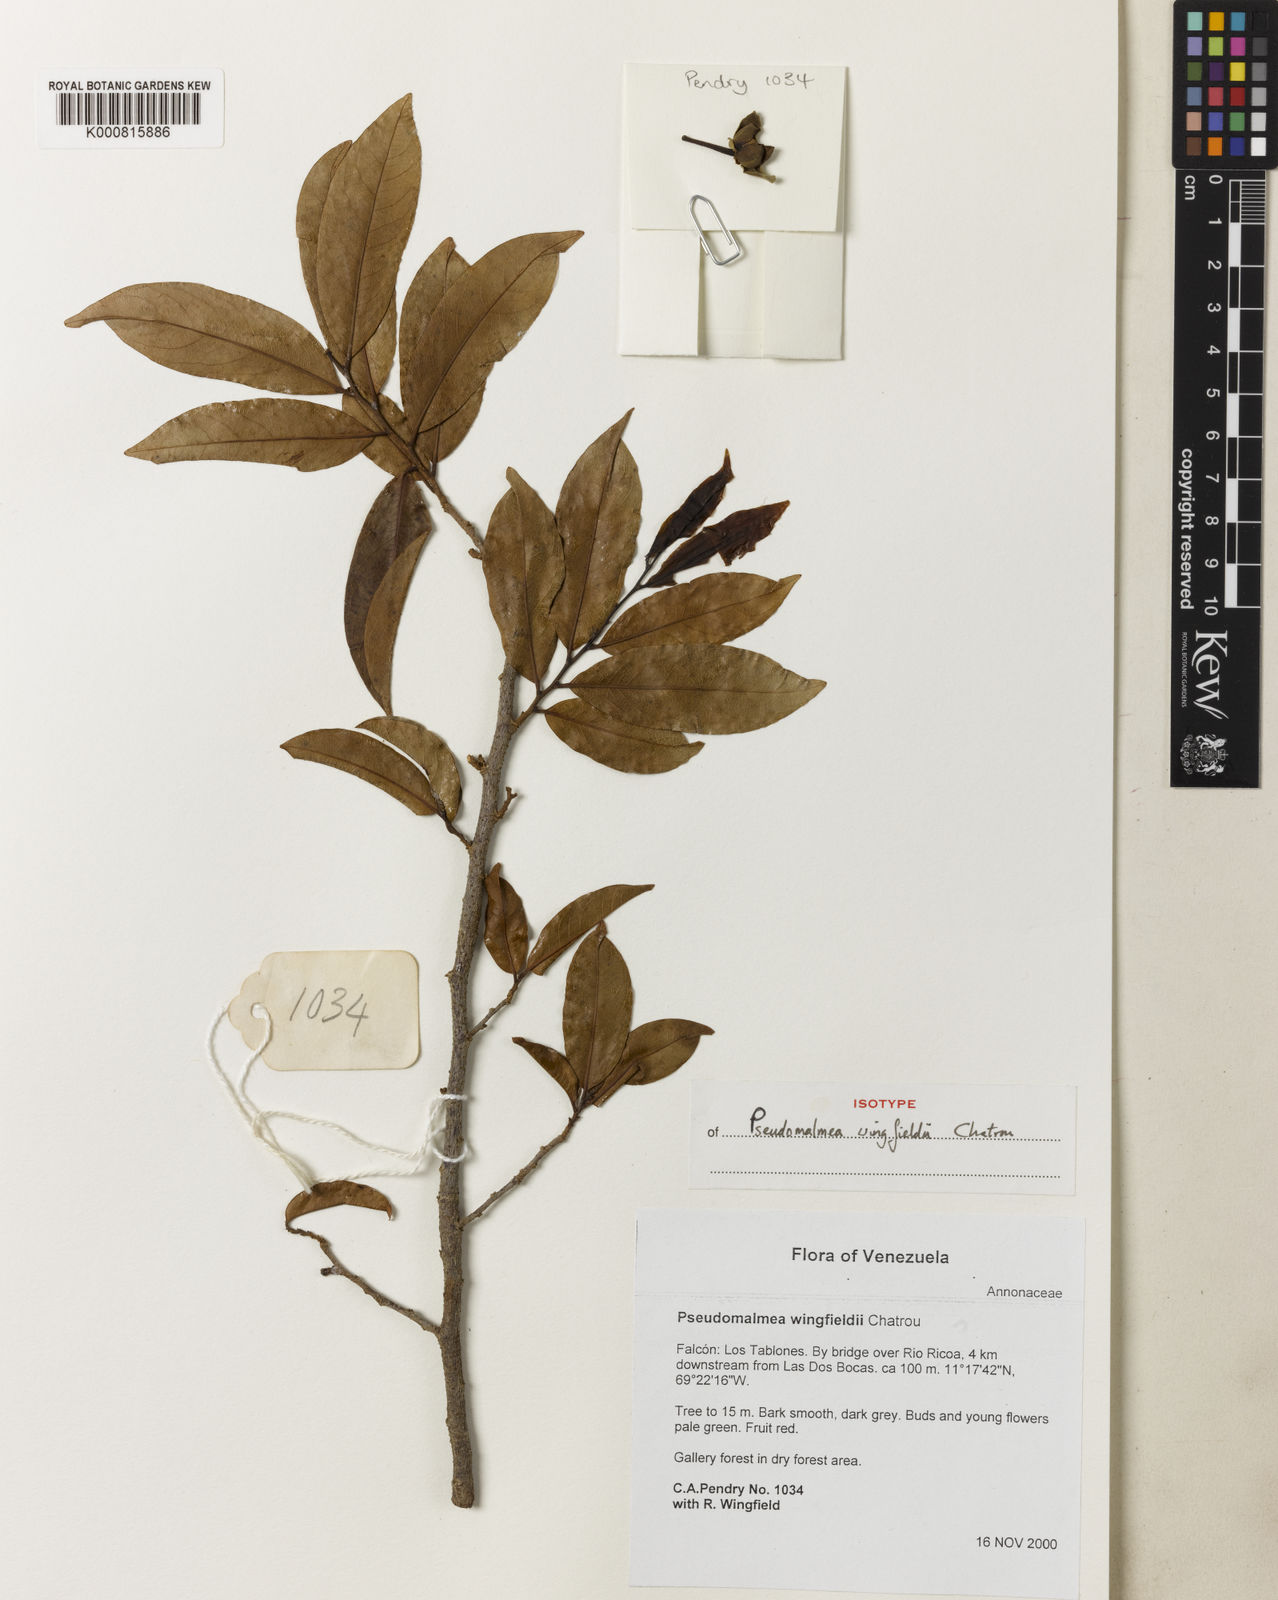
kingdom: Plantae
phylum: Tracheophyta
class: Magnoliopsida
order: Magnoliales
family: Annonaceae
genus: Pseudomalmea
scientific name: Pseudomalmea wingfieldii
